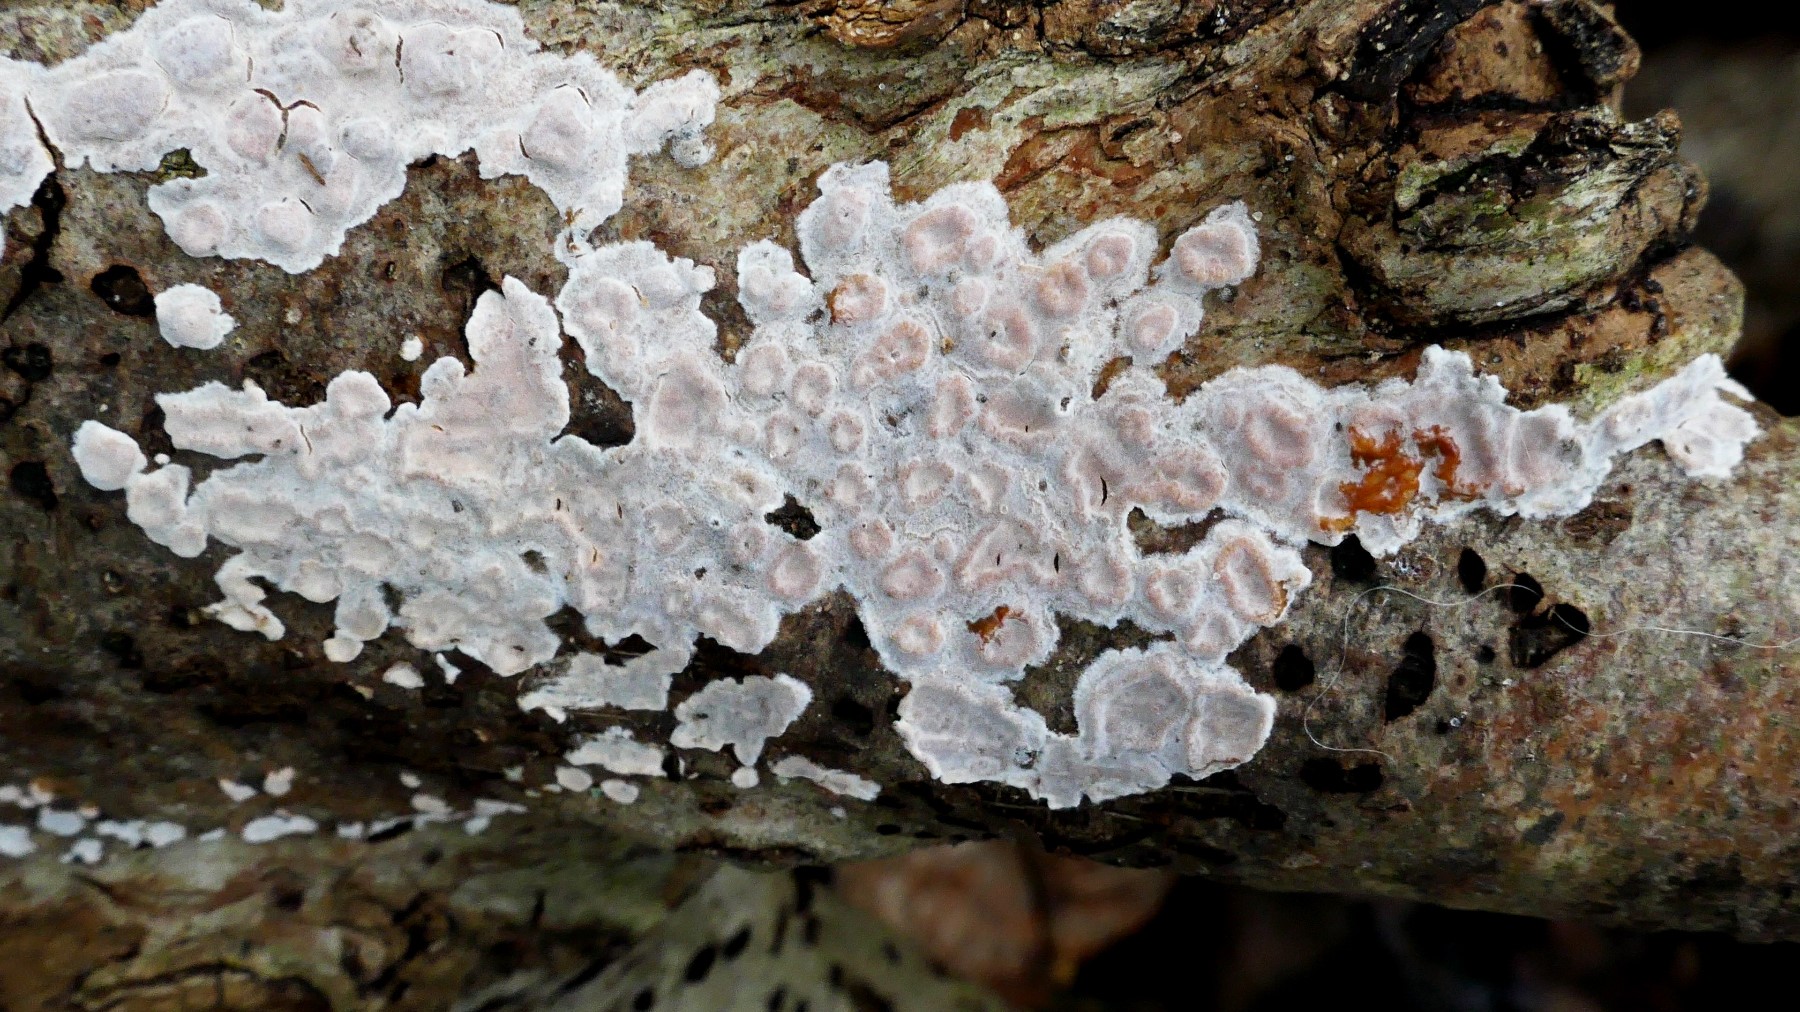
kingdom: Fungi
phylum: Basidiomycota
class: Agaricomycetes
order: Russulales
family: Peniophoraceae
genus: Peniophora
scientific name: Peniophora polygonia
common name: polygon-voksskind
